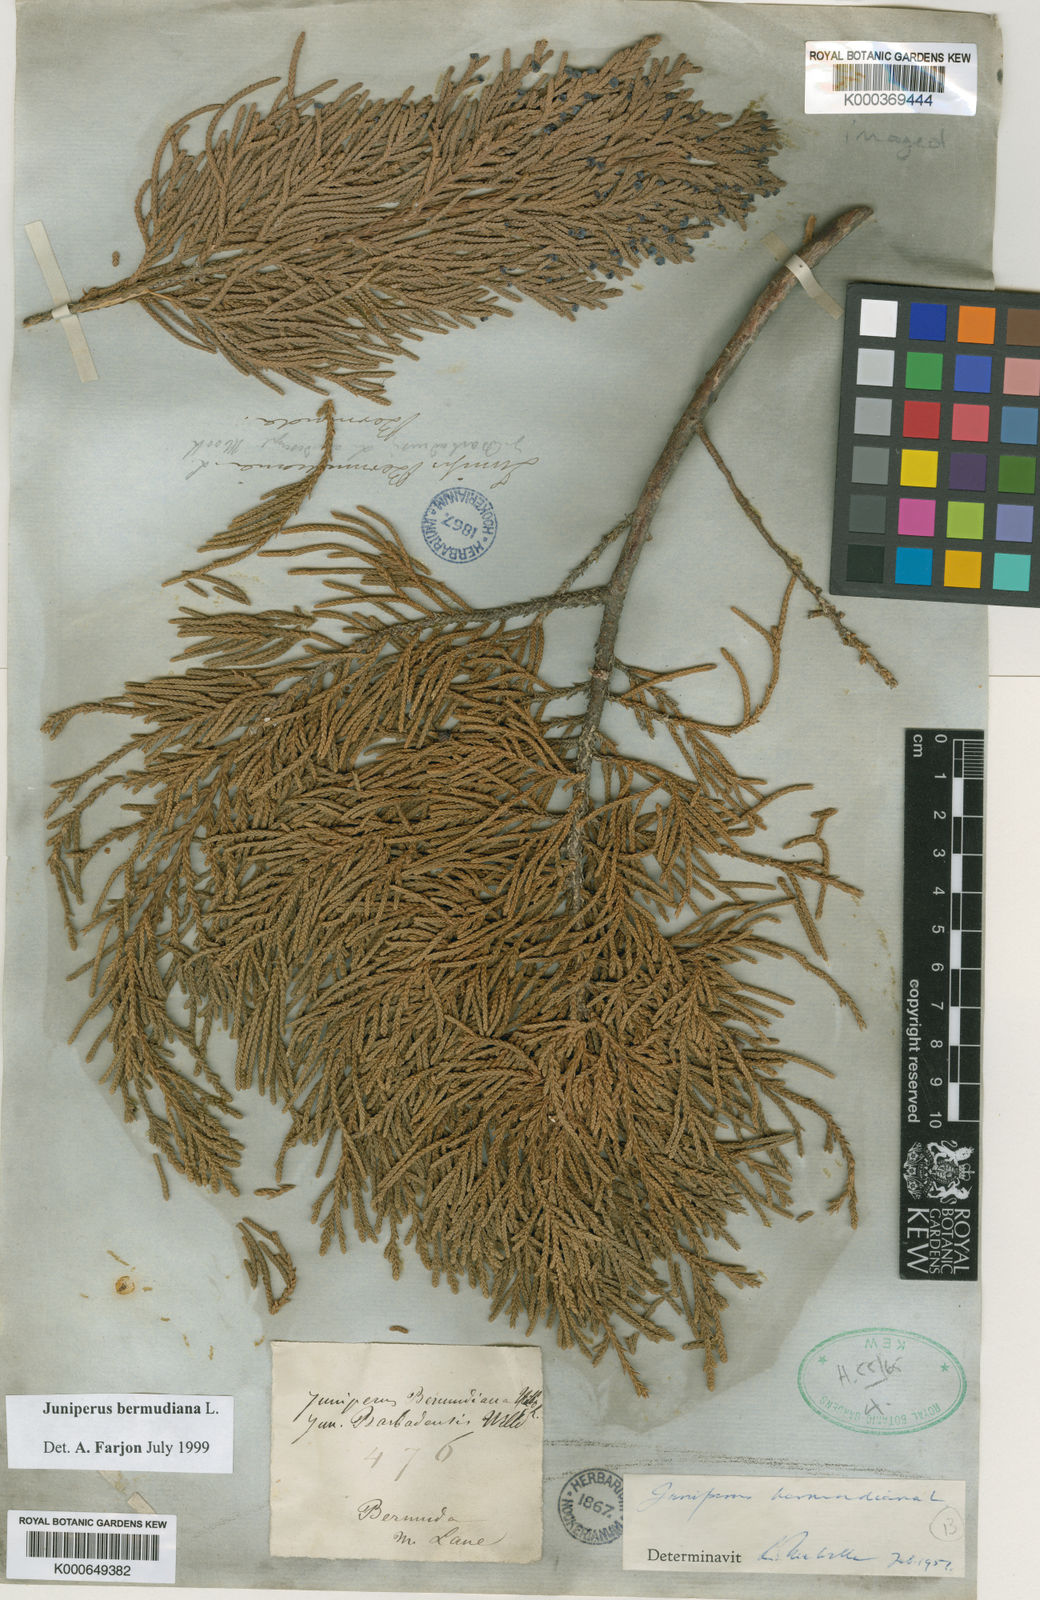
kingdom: Plantae
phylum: Tracheophyta
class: Pinopsida
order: Pinales
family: Cupressaceae
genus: Juniperus
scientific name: Juniperus bermudiana
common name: Bermuda juniper
